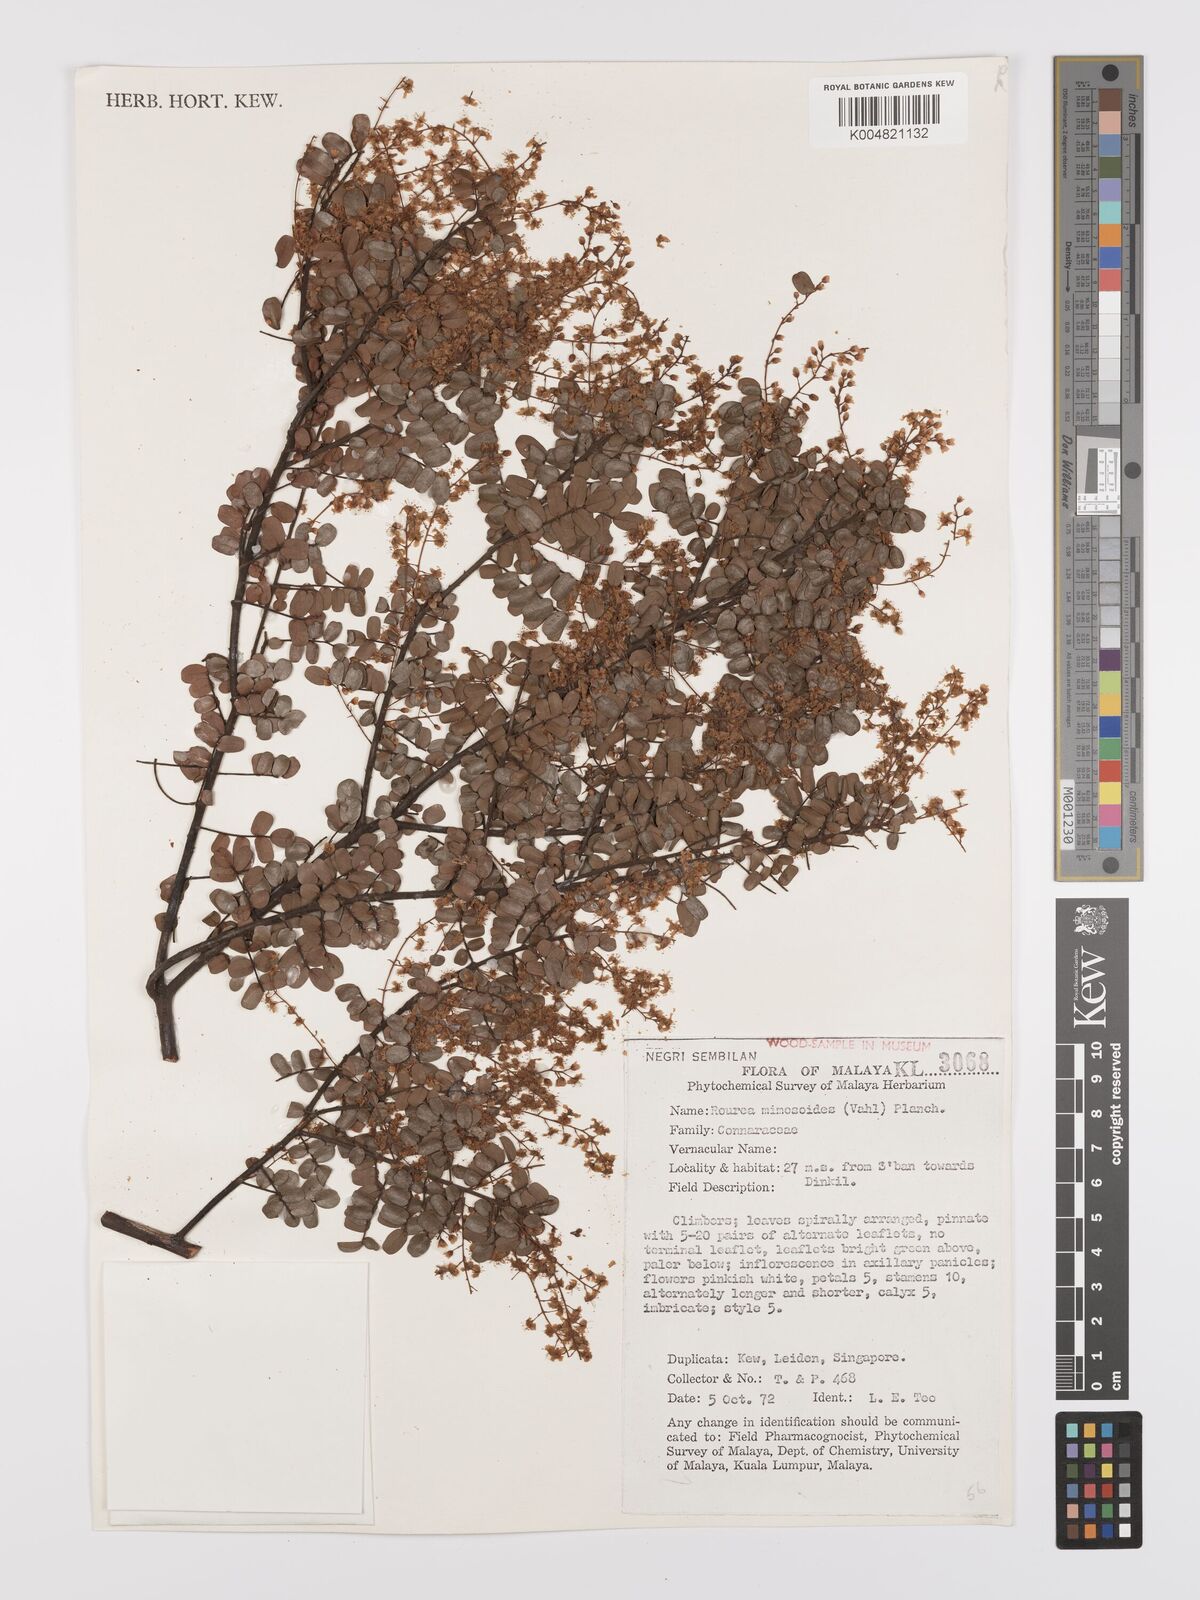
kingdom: Plantae
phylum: Tracheophyta
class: Magnoliopsida
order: Oxalidales
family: Connaraceae
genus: Rourea
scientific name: Rourea mimosoides
